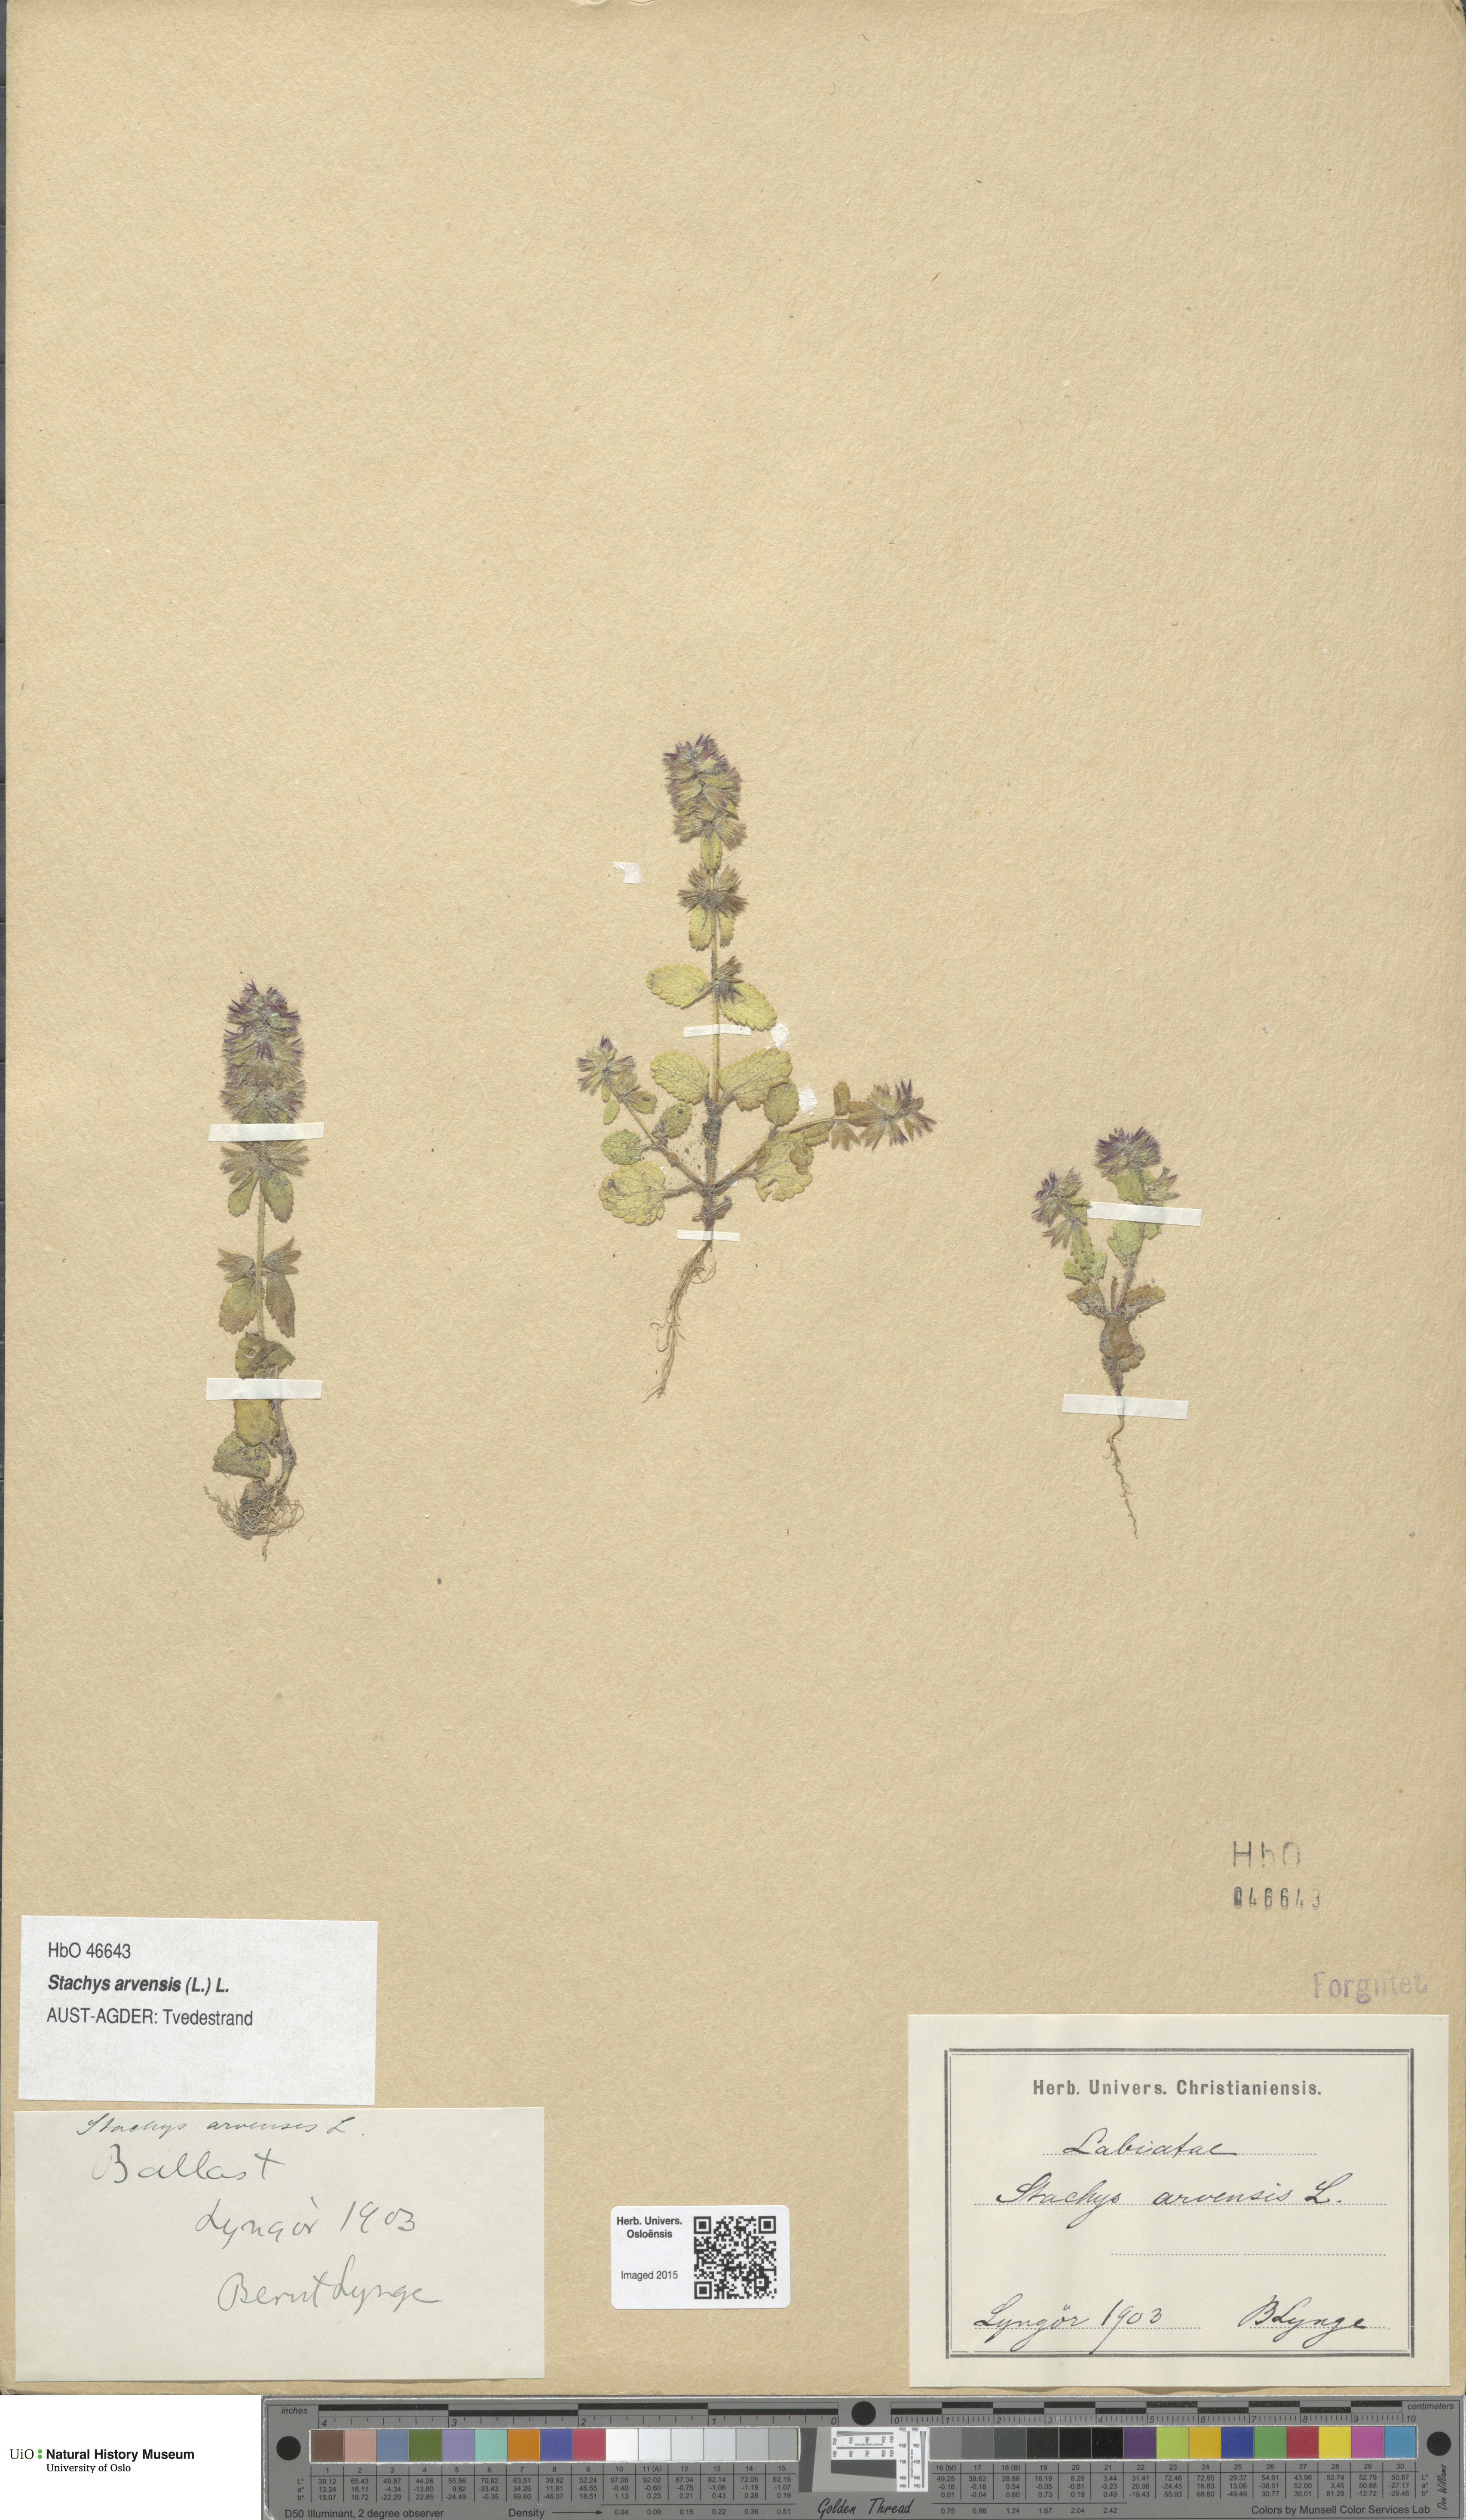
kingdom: Plantae
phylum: Tracheophyta
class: Magnoliopsida
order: Lamiales
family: Lamiaceae
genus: Stachys
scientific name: Stachys arvensis
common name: Field woundwort
